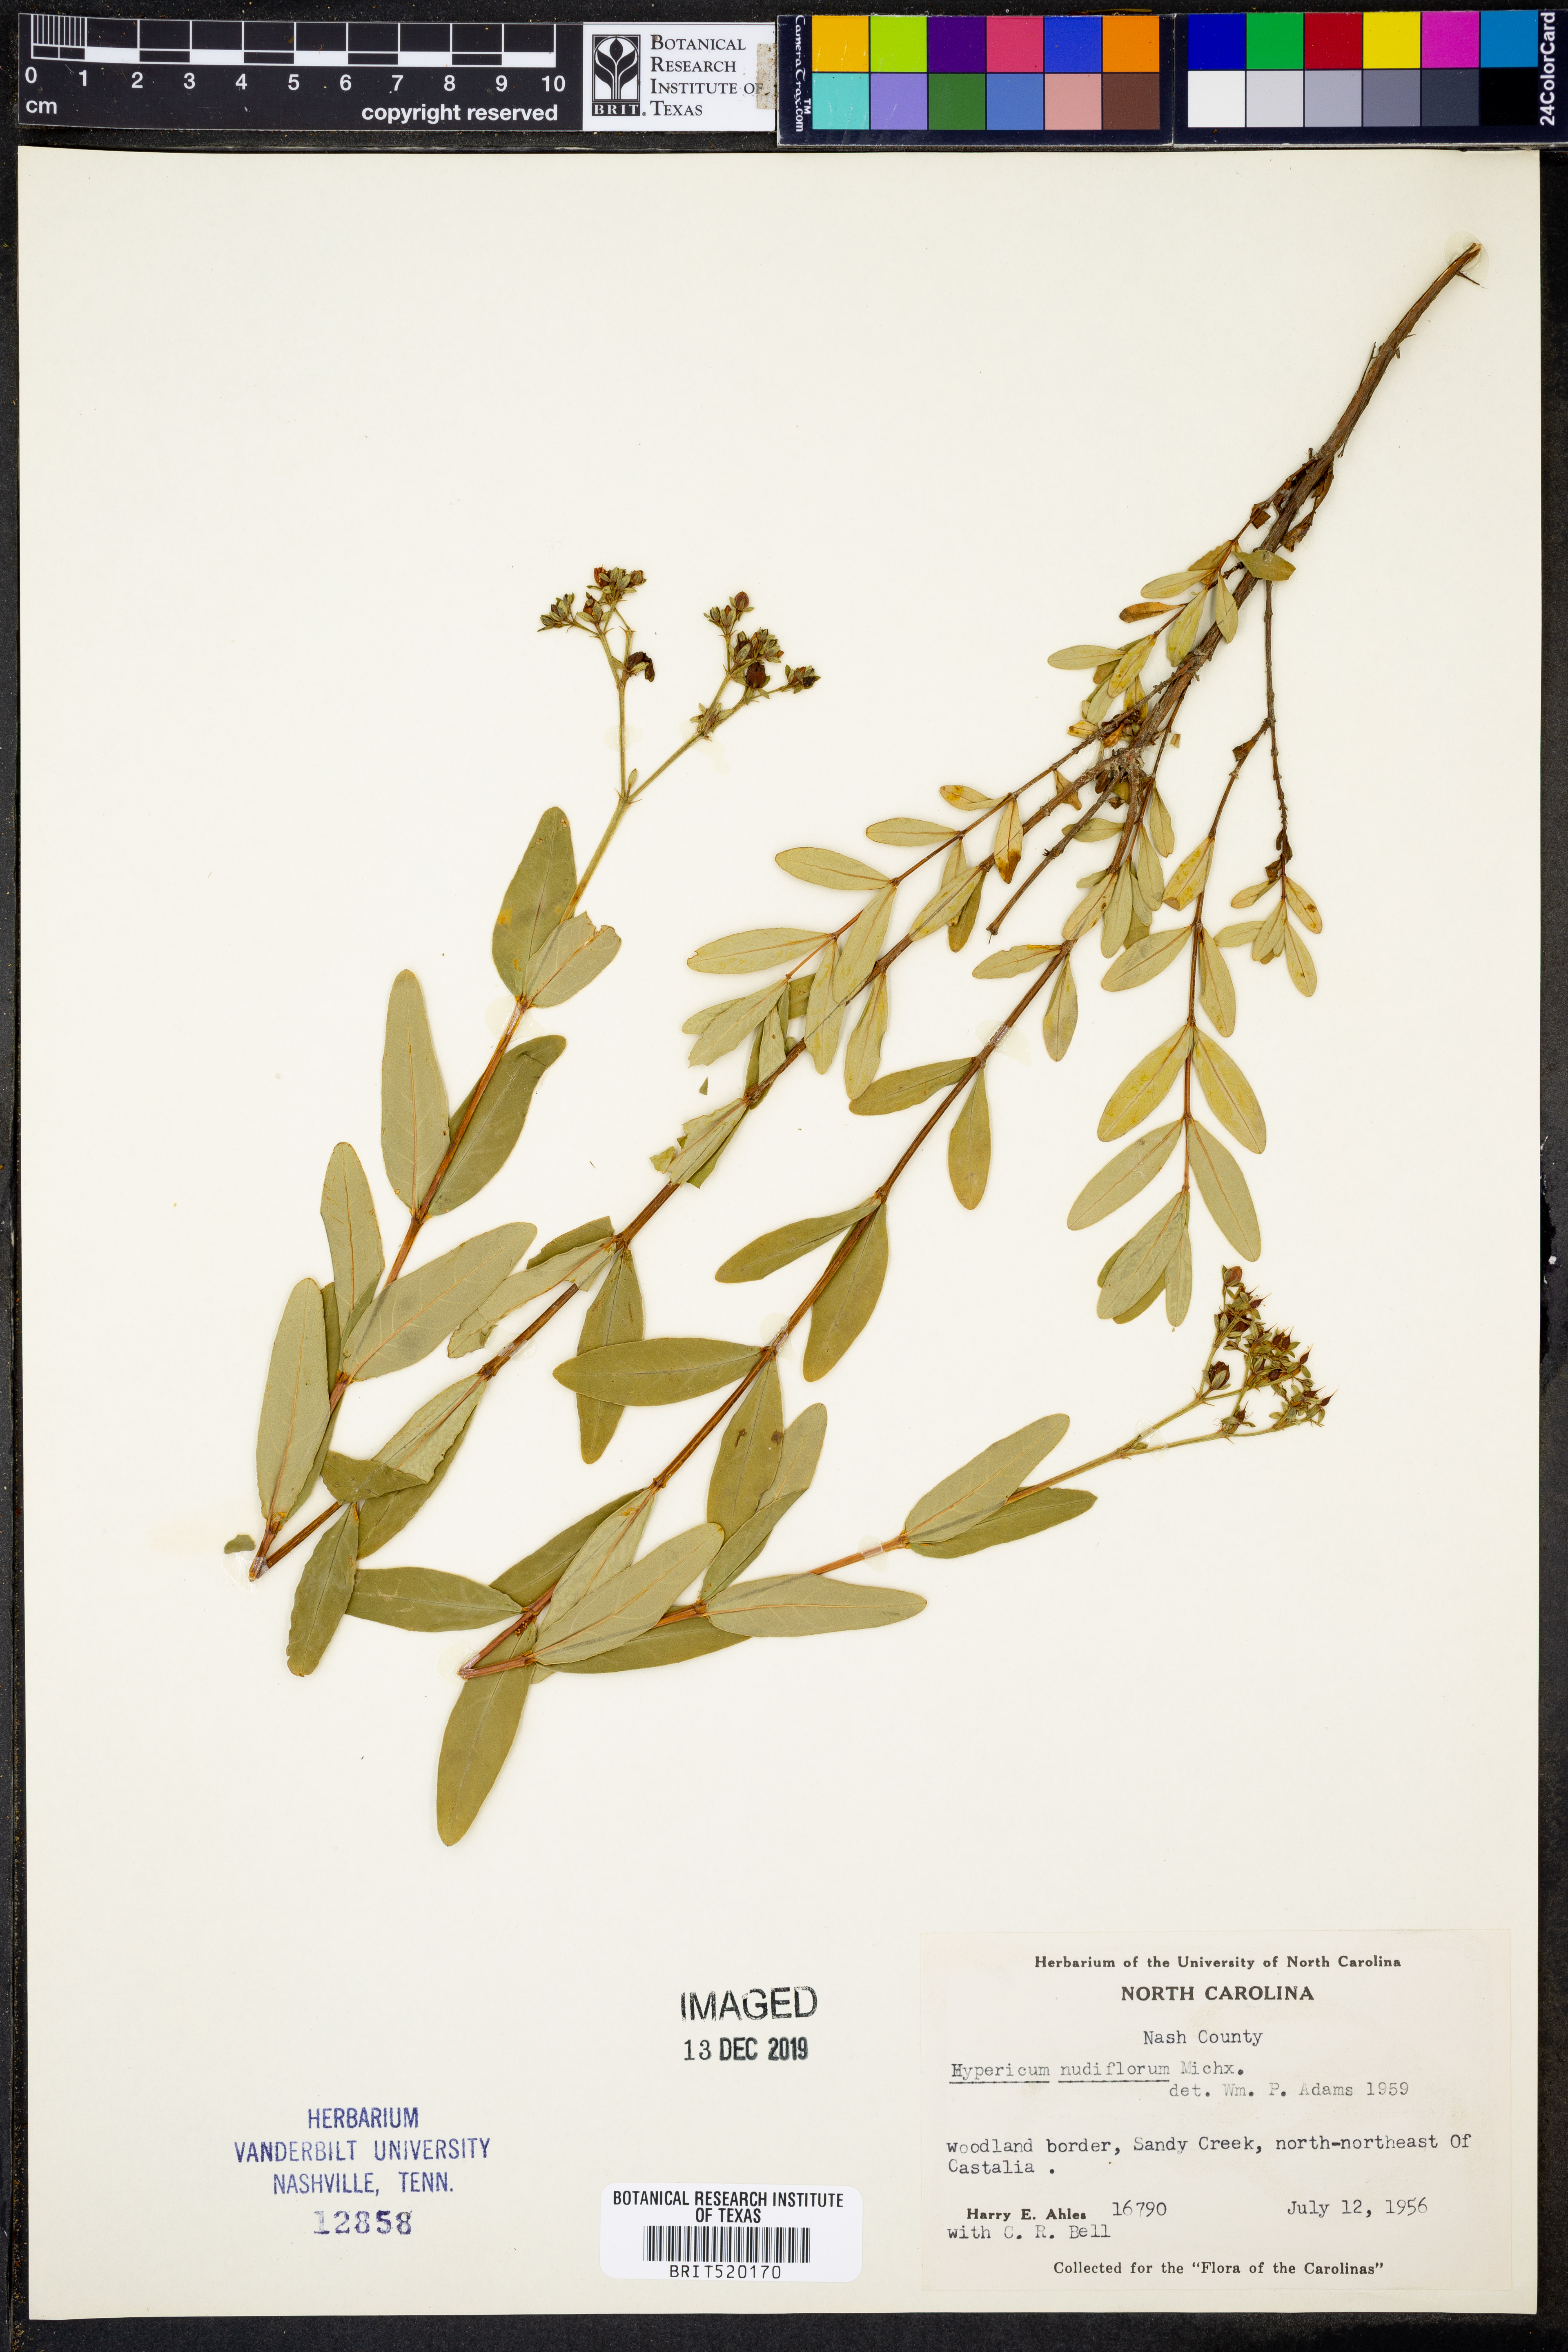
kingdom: Plantae
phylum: Tracheophyta
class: Magnoliopsida
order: Malpighiales
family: Hypericaceae
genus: Hypericum
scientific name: Hypericum nudiflorum
